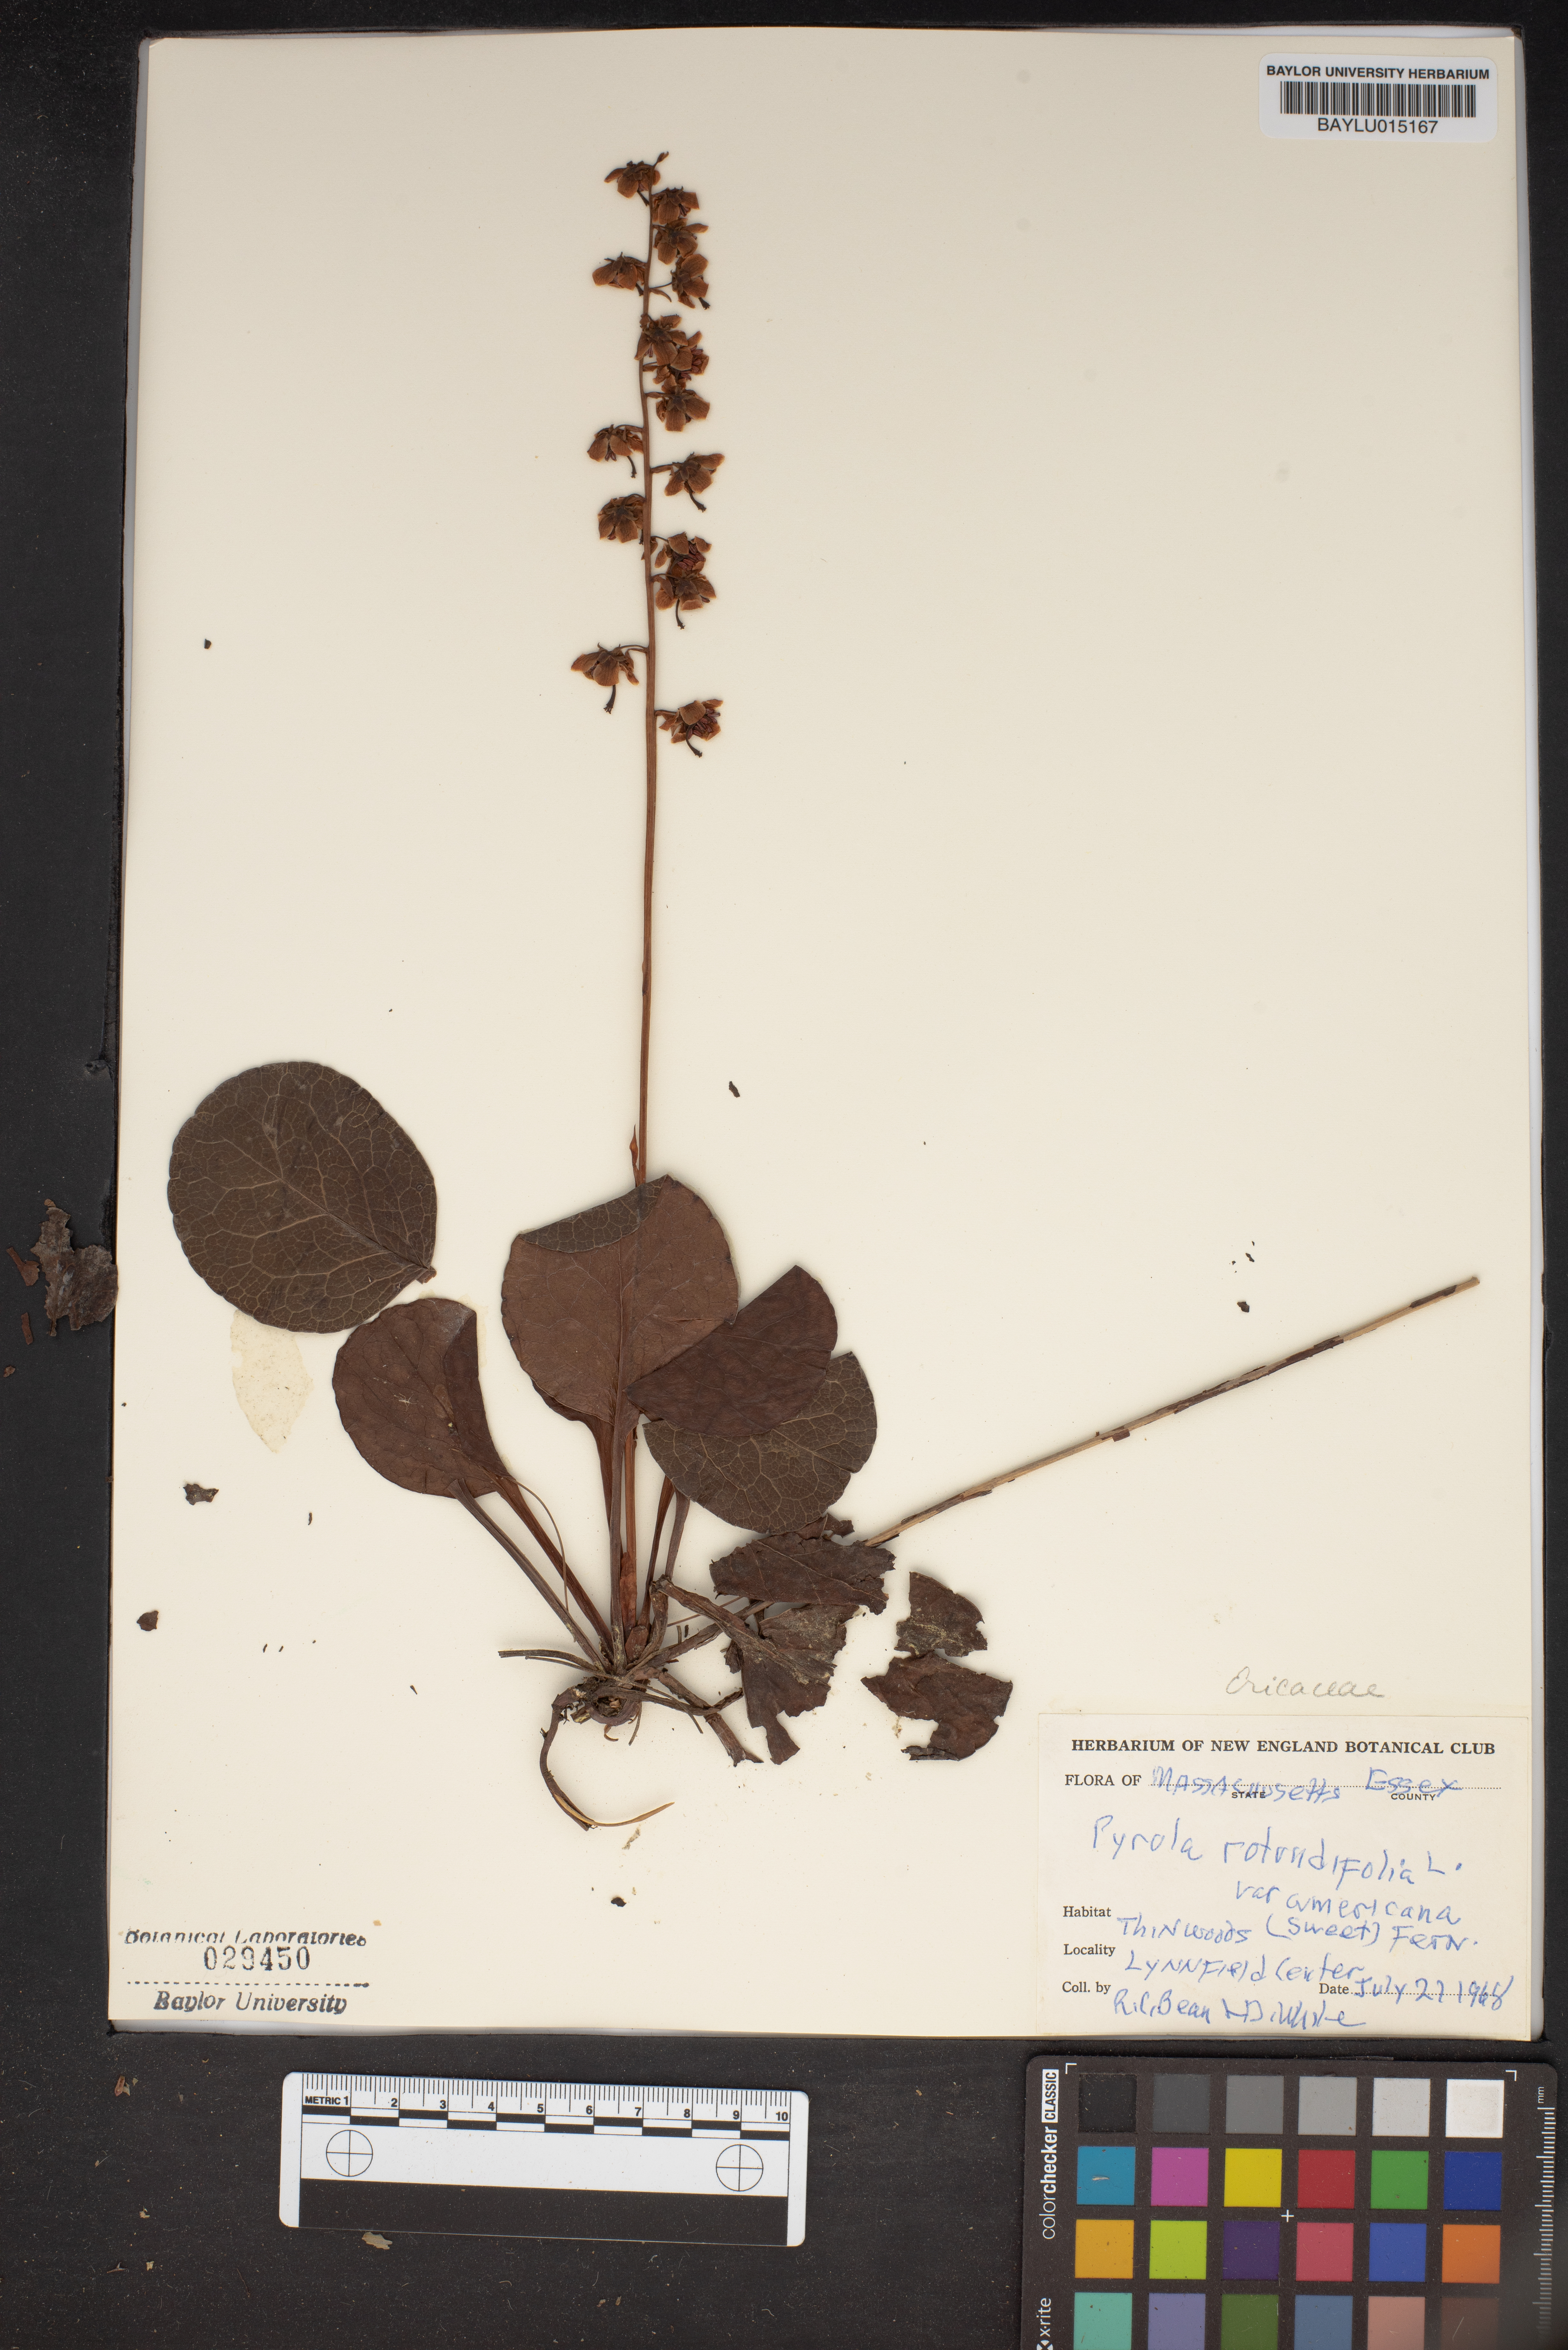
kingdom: Plantae
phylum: Tracheophyta
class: Magnoliopsida
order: Ericales
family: Ericaceae
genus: Pyrola
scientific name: Pyrola americana
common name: American wintergreen
